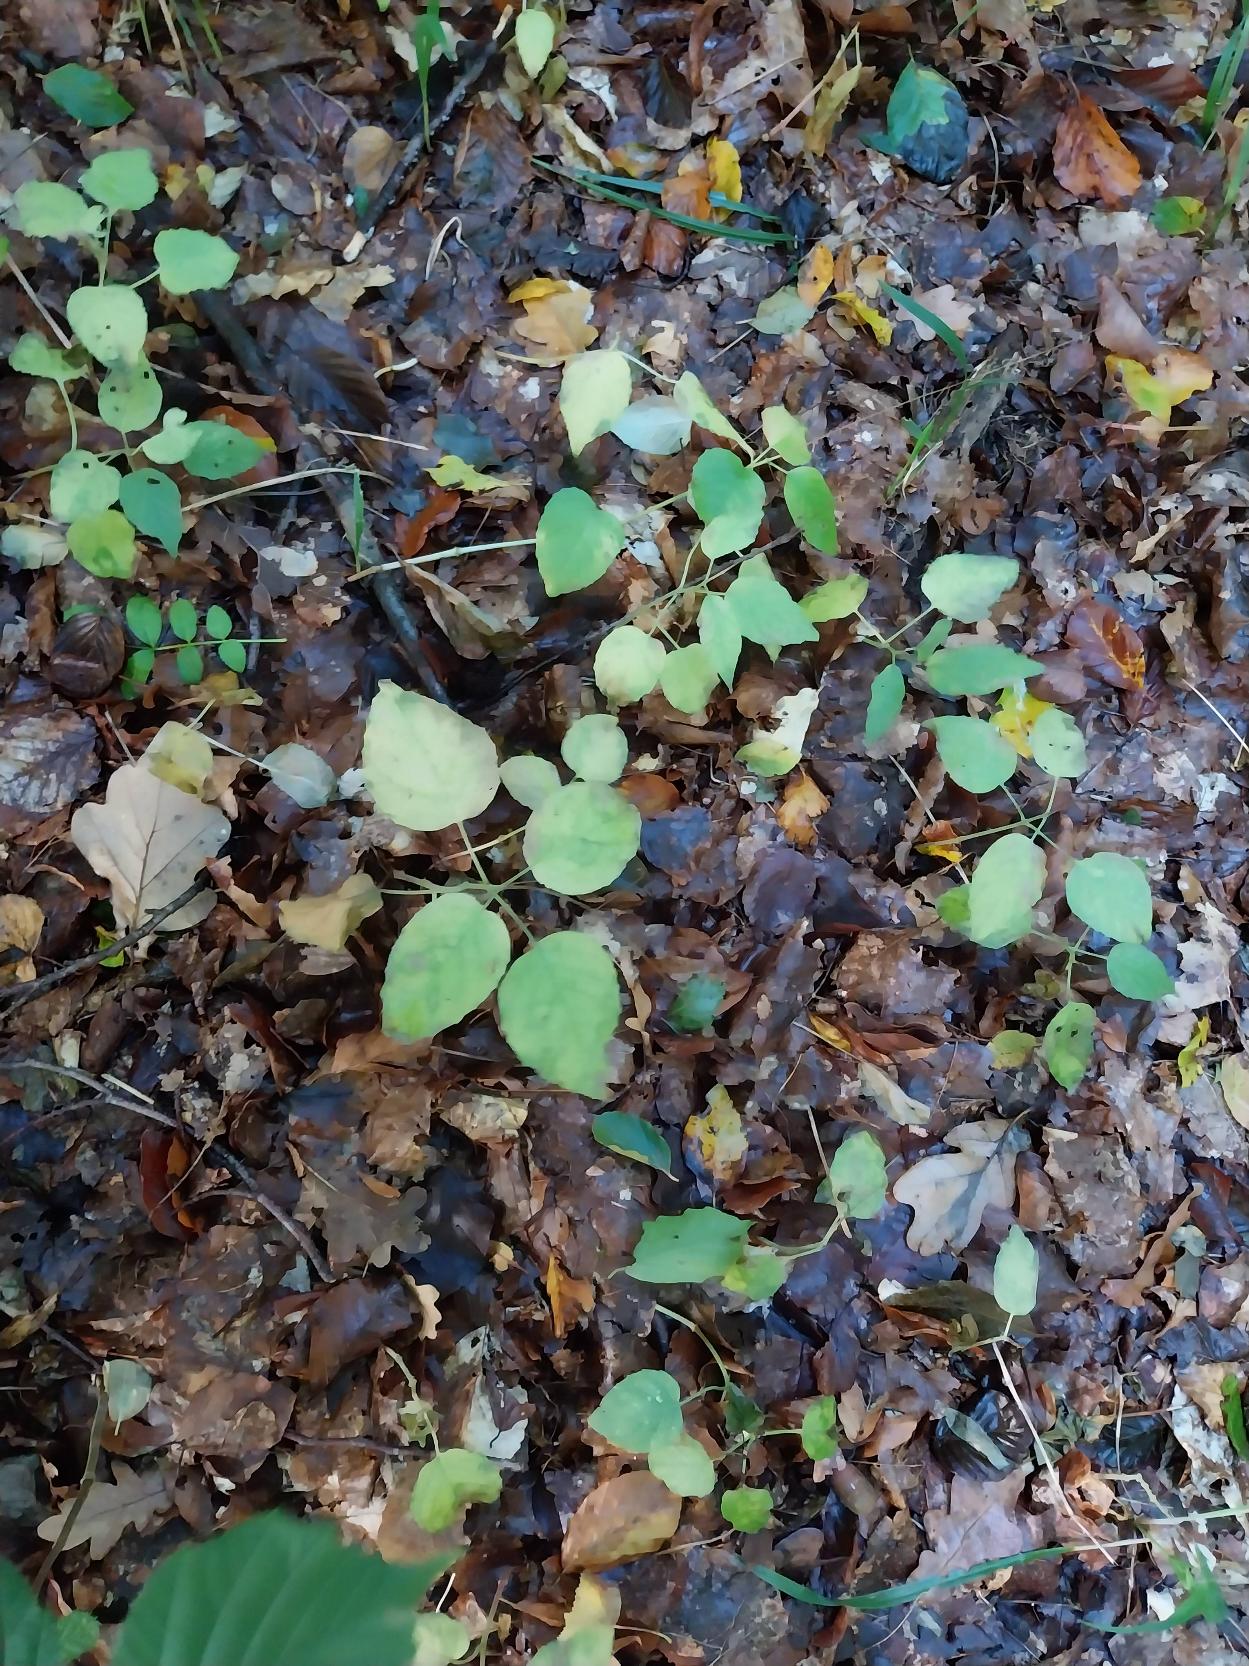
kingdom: Plantae
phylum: Tracheophyta
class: Magnoliopsida
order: Myrtales
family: Onagraceae
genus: Circaea
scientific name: Circaea lutetiana
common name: Dunet steffensurt
